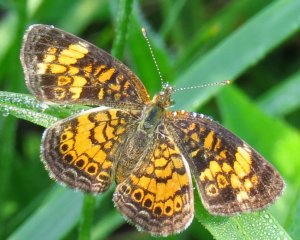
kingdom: Animalia
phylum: Arthropoda
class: Insecta
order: Lepidoptera
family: Nymphalidae
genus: Phyciodes
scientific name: Phyciodes tharos
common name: Pearl Crescent
